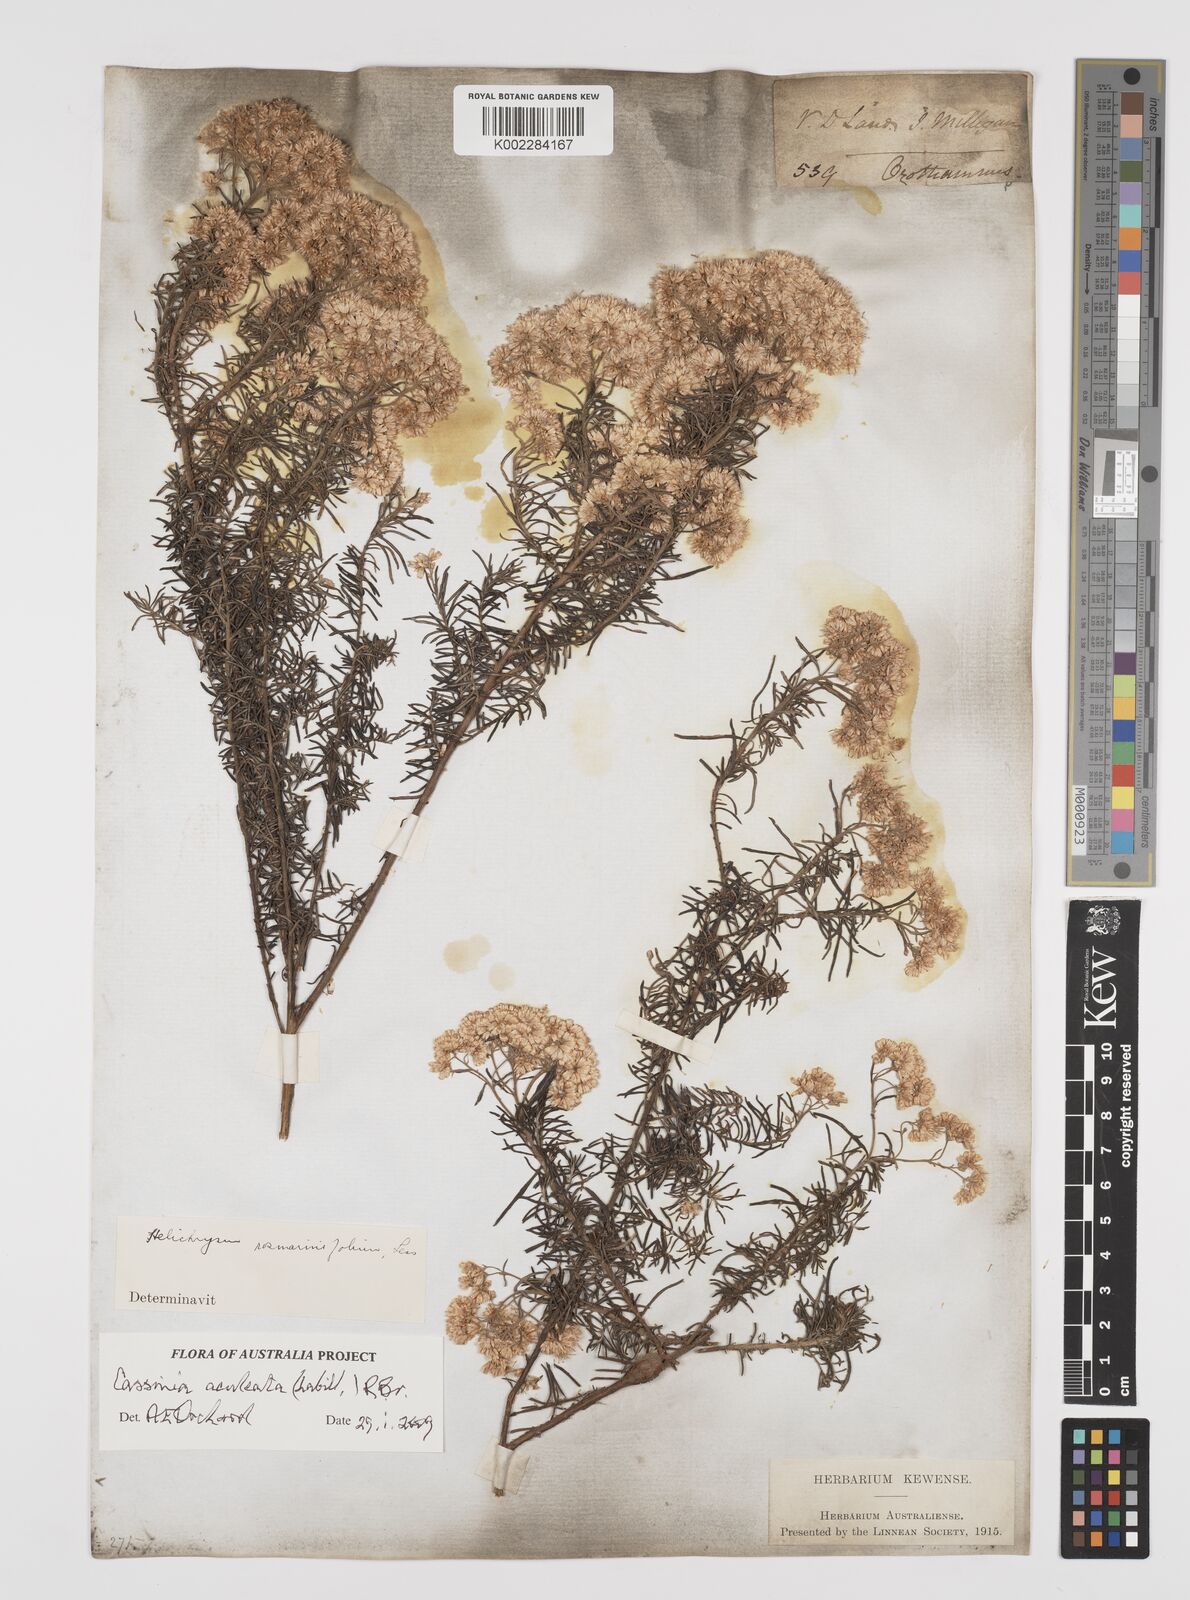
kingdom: Plantae
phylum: Tracheophyta
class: Magnoliopsida
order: Asterales
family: Asteraceae
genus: Cassinia
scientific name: Cassinia aculeata
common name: Australian tauhinu
